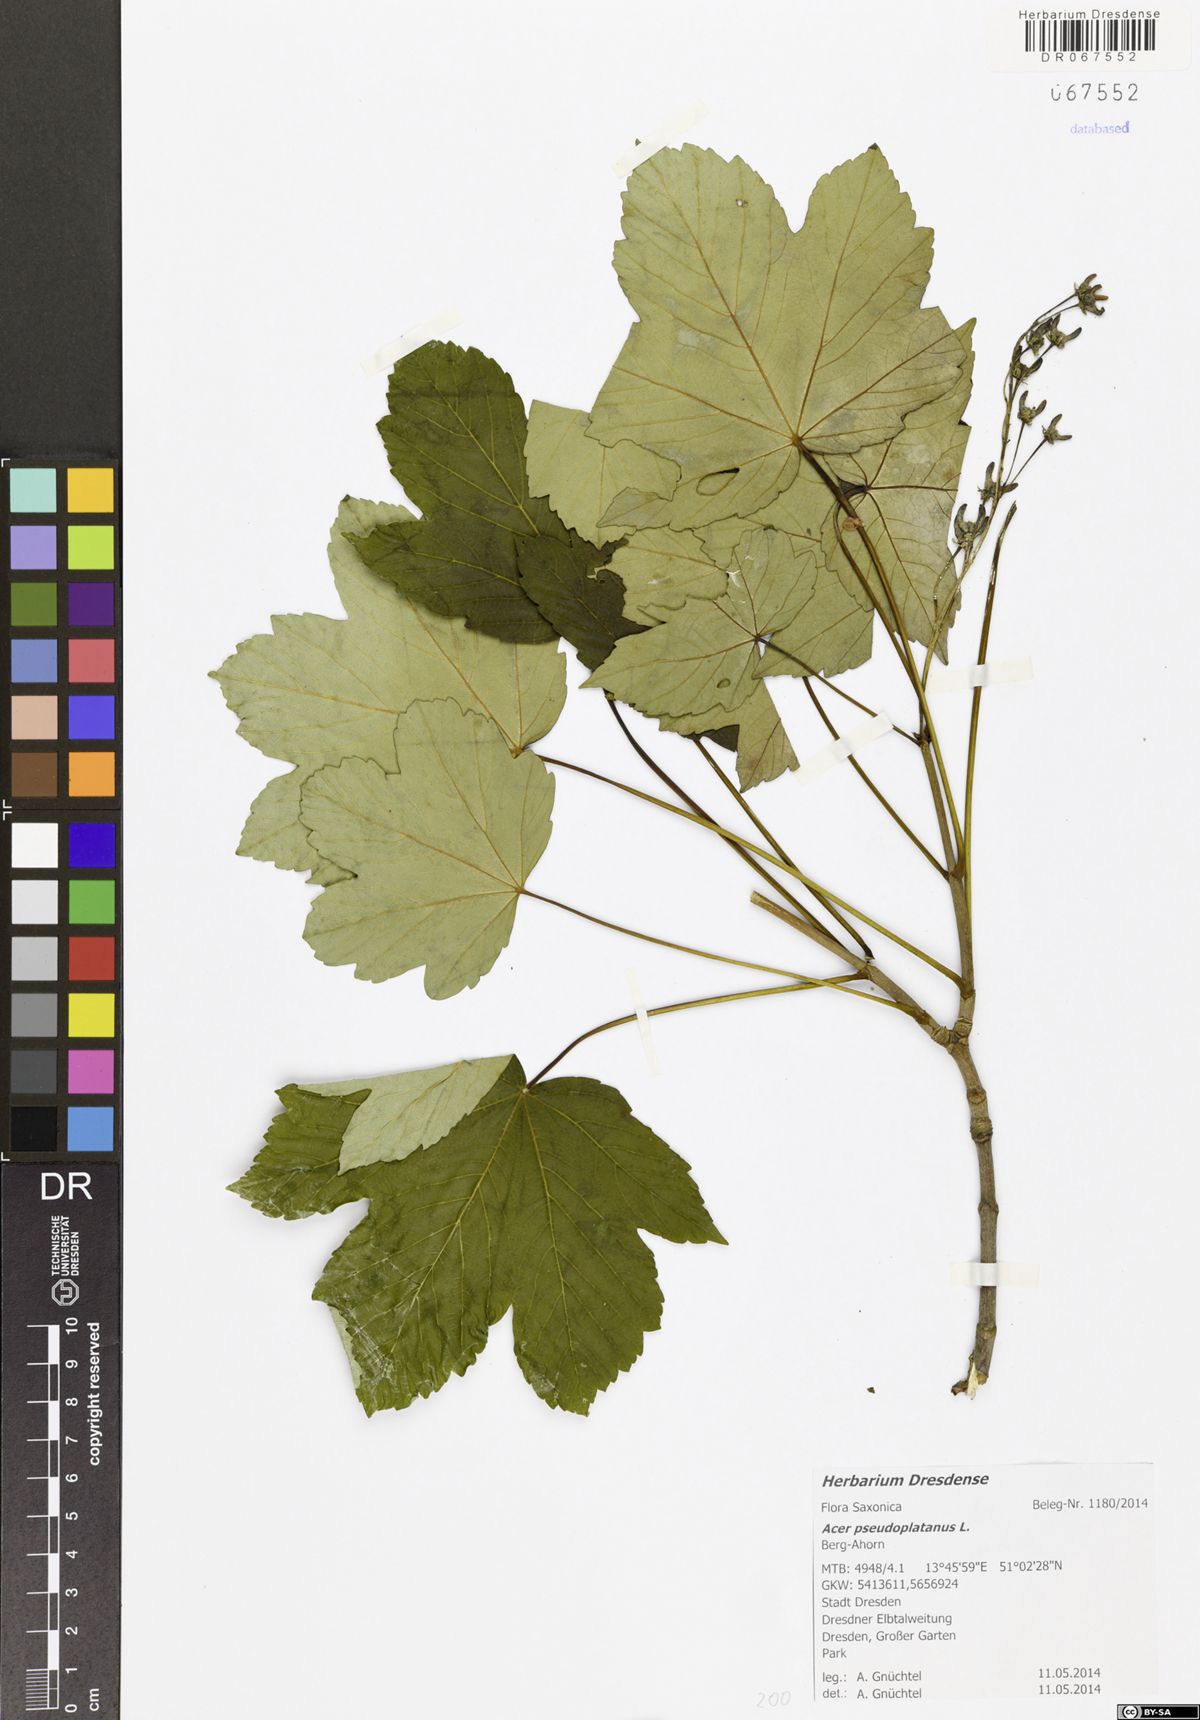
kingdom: Plantae
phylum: Tracheophyta
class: Magnoliopsida
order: Sapindales
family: Sapindaceae
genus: Acer
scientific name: Acer pseudoplatanus
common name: Sycamore
